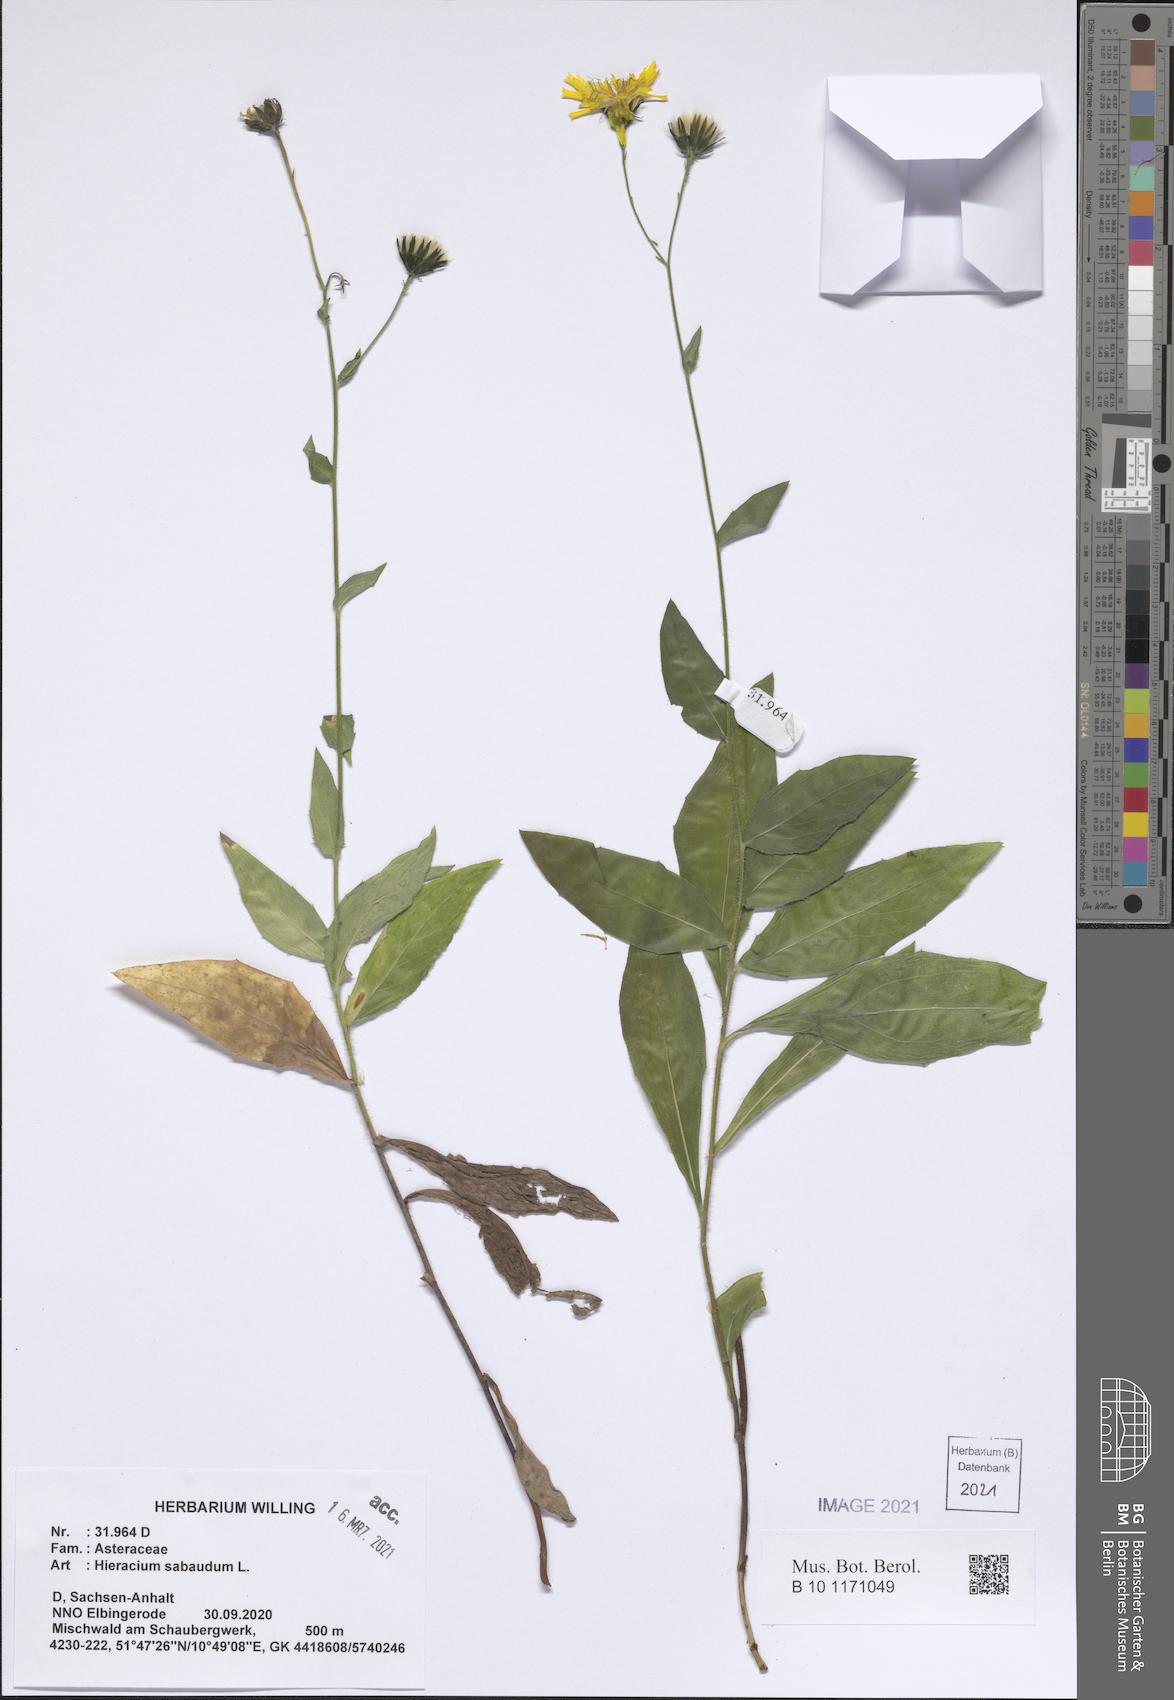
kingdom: Plantae
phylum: Tracheophyta
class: Magnoliopsida
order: Asterales
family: Asteraceae
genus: Hieracium
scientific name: Hieracium sabaudum
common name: New england hawkweed
